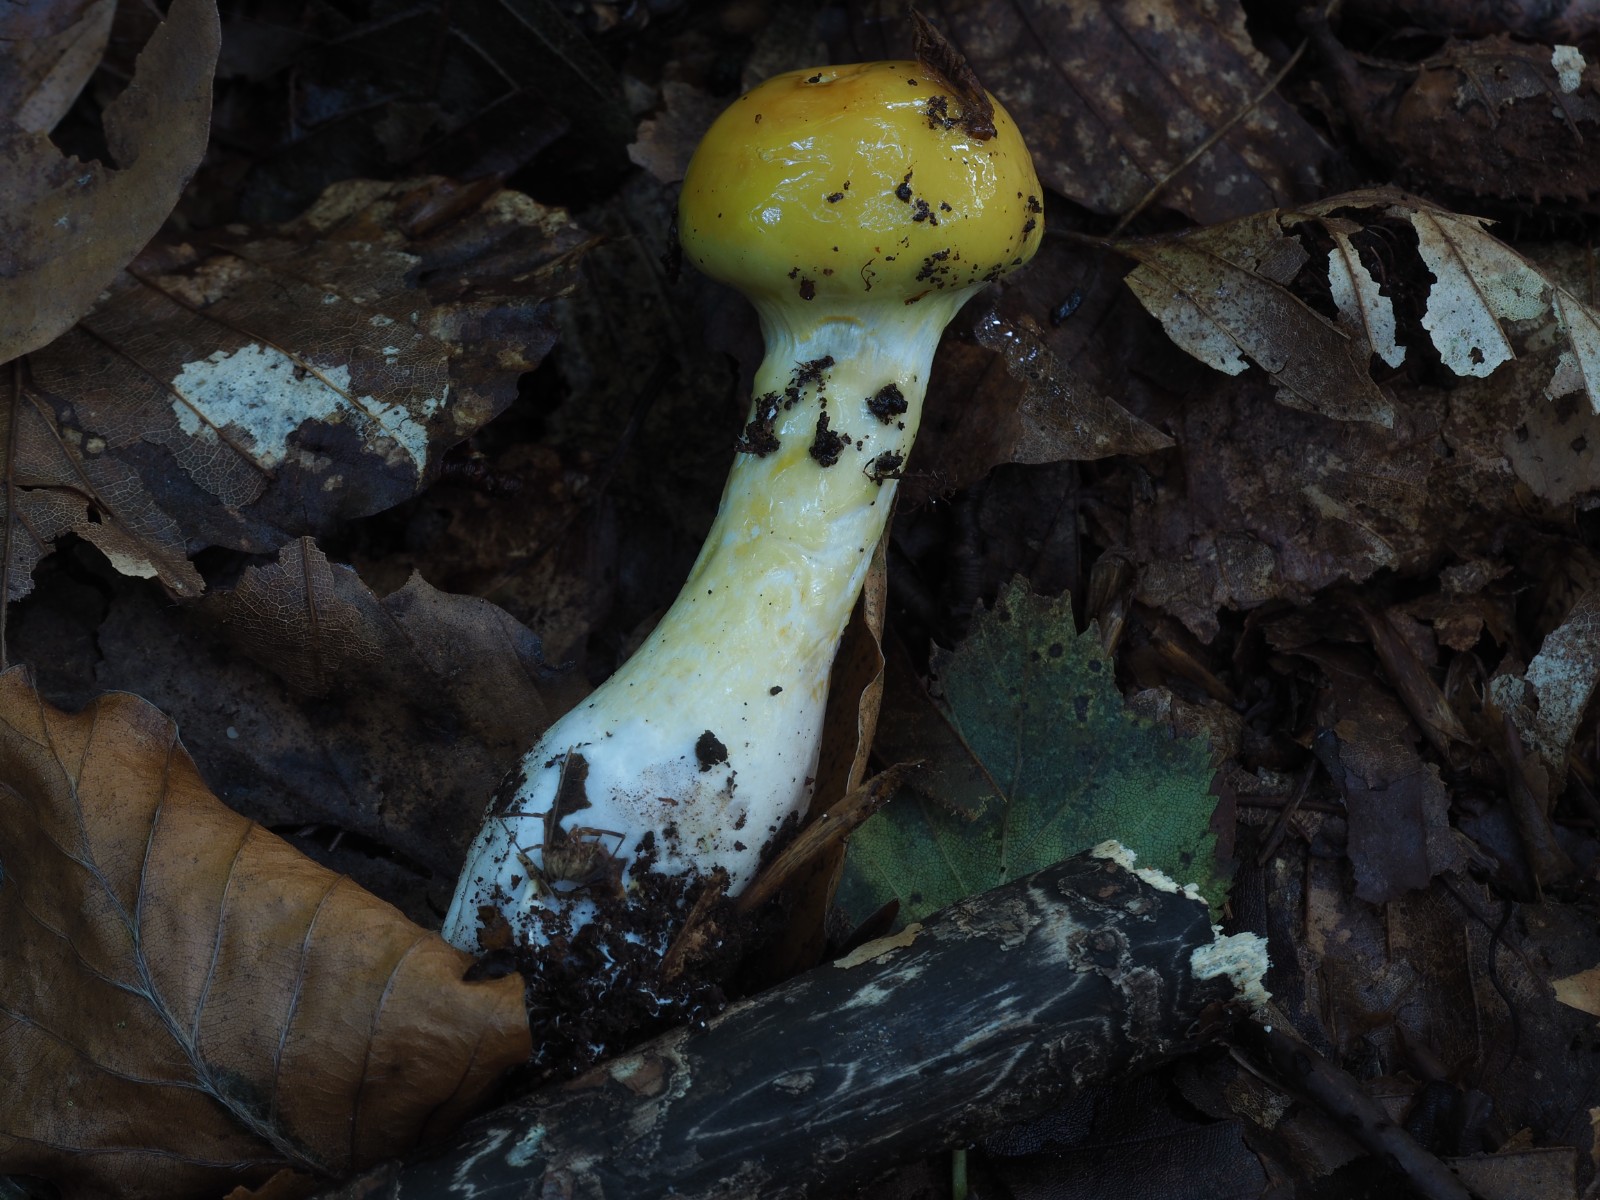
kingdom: Fungi
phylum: Basidiomycota
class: Agaricomycetes
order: Agaricales
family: Cortinariaceae
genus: Cortinarius
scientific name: Cortinarius delibutus
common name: gul slørhat
